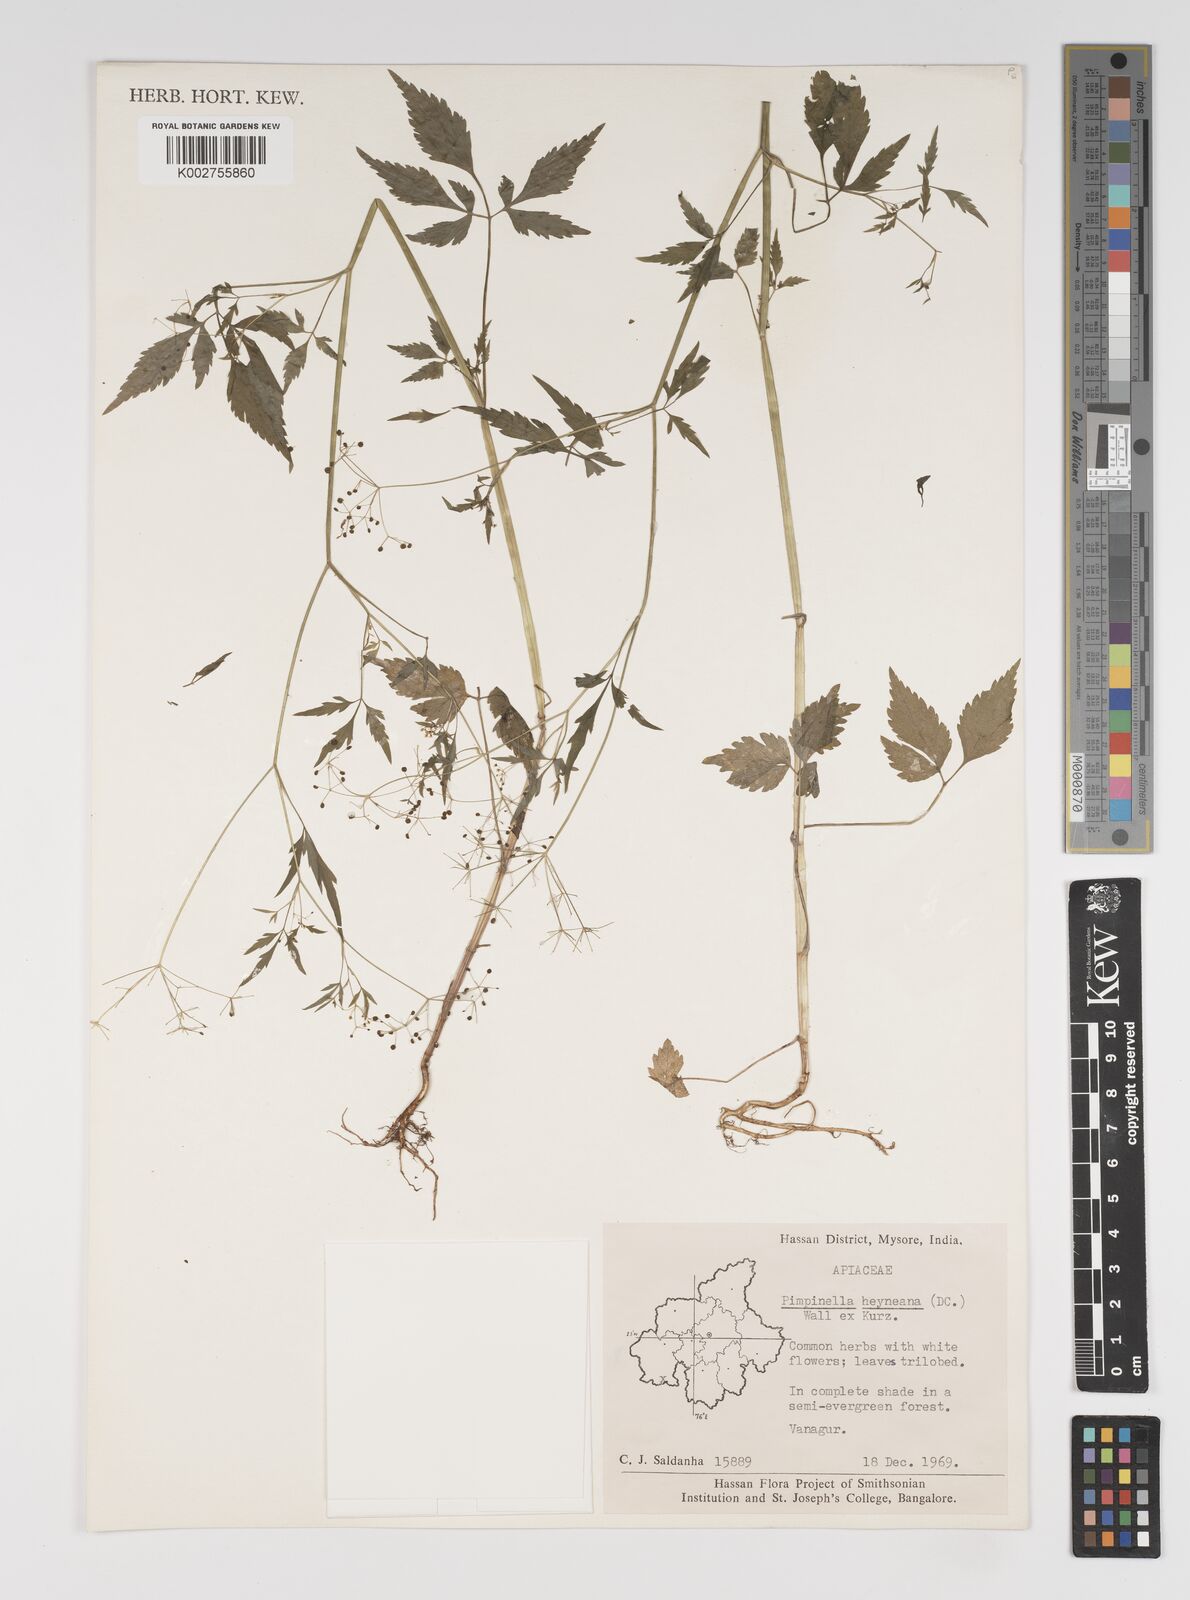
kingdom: Plantae
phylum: Tracheophyta
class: Magnoliopsida
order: Apiales
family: Apiaceae
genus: Pimpinella
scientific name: Pimpinella heyneana
